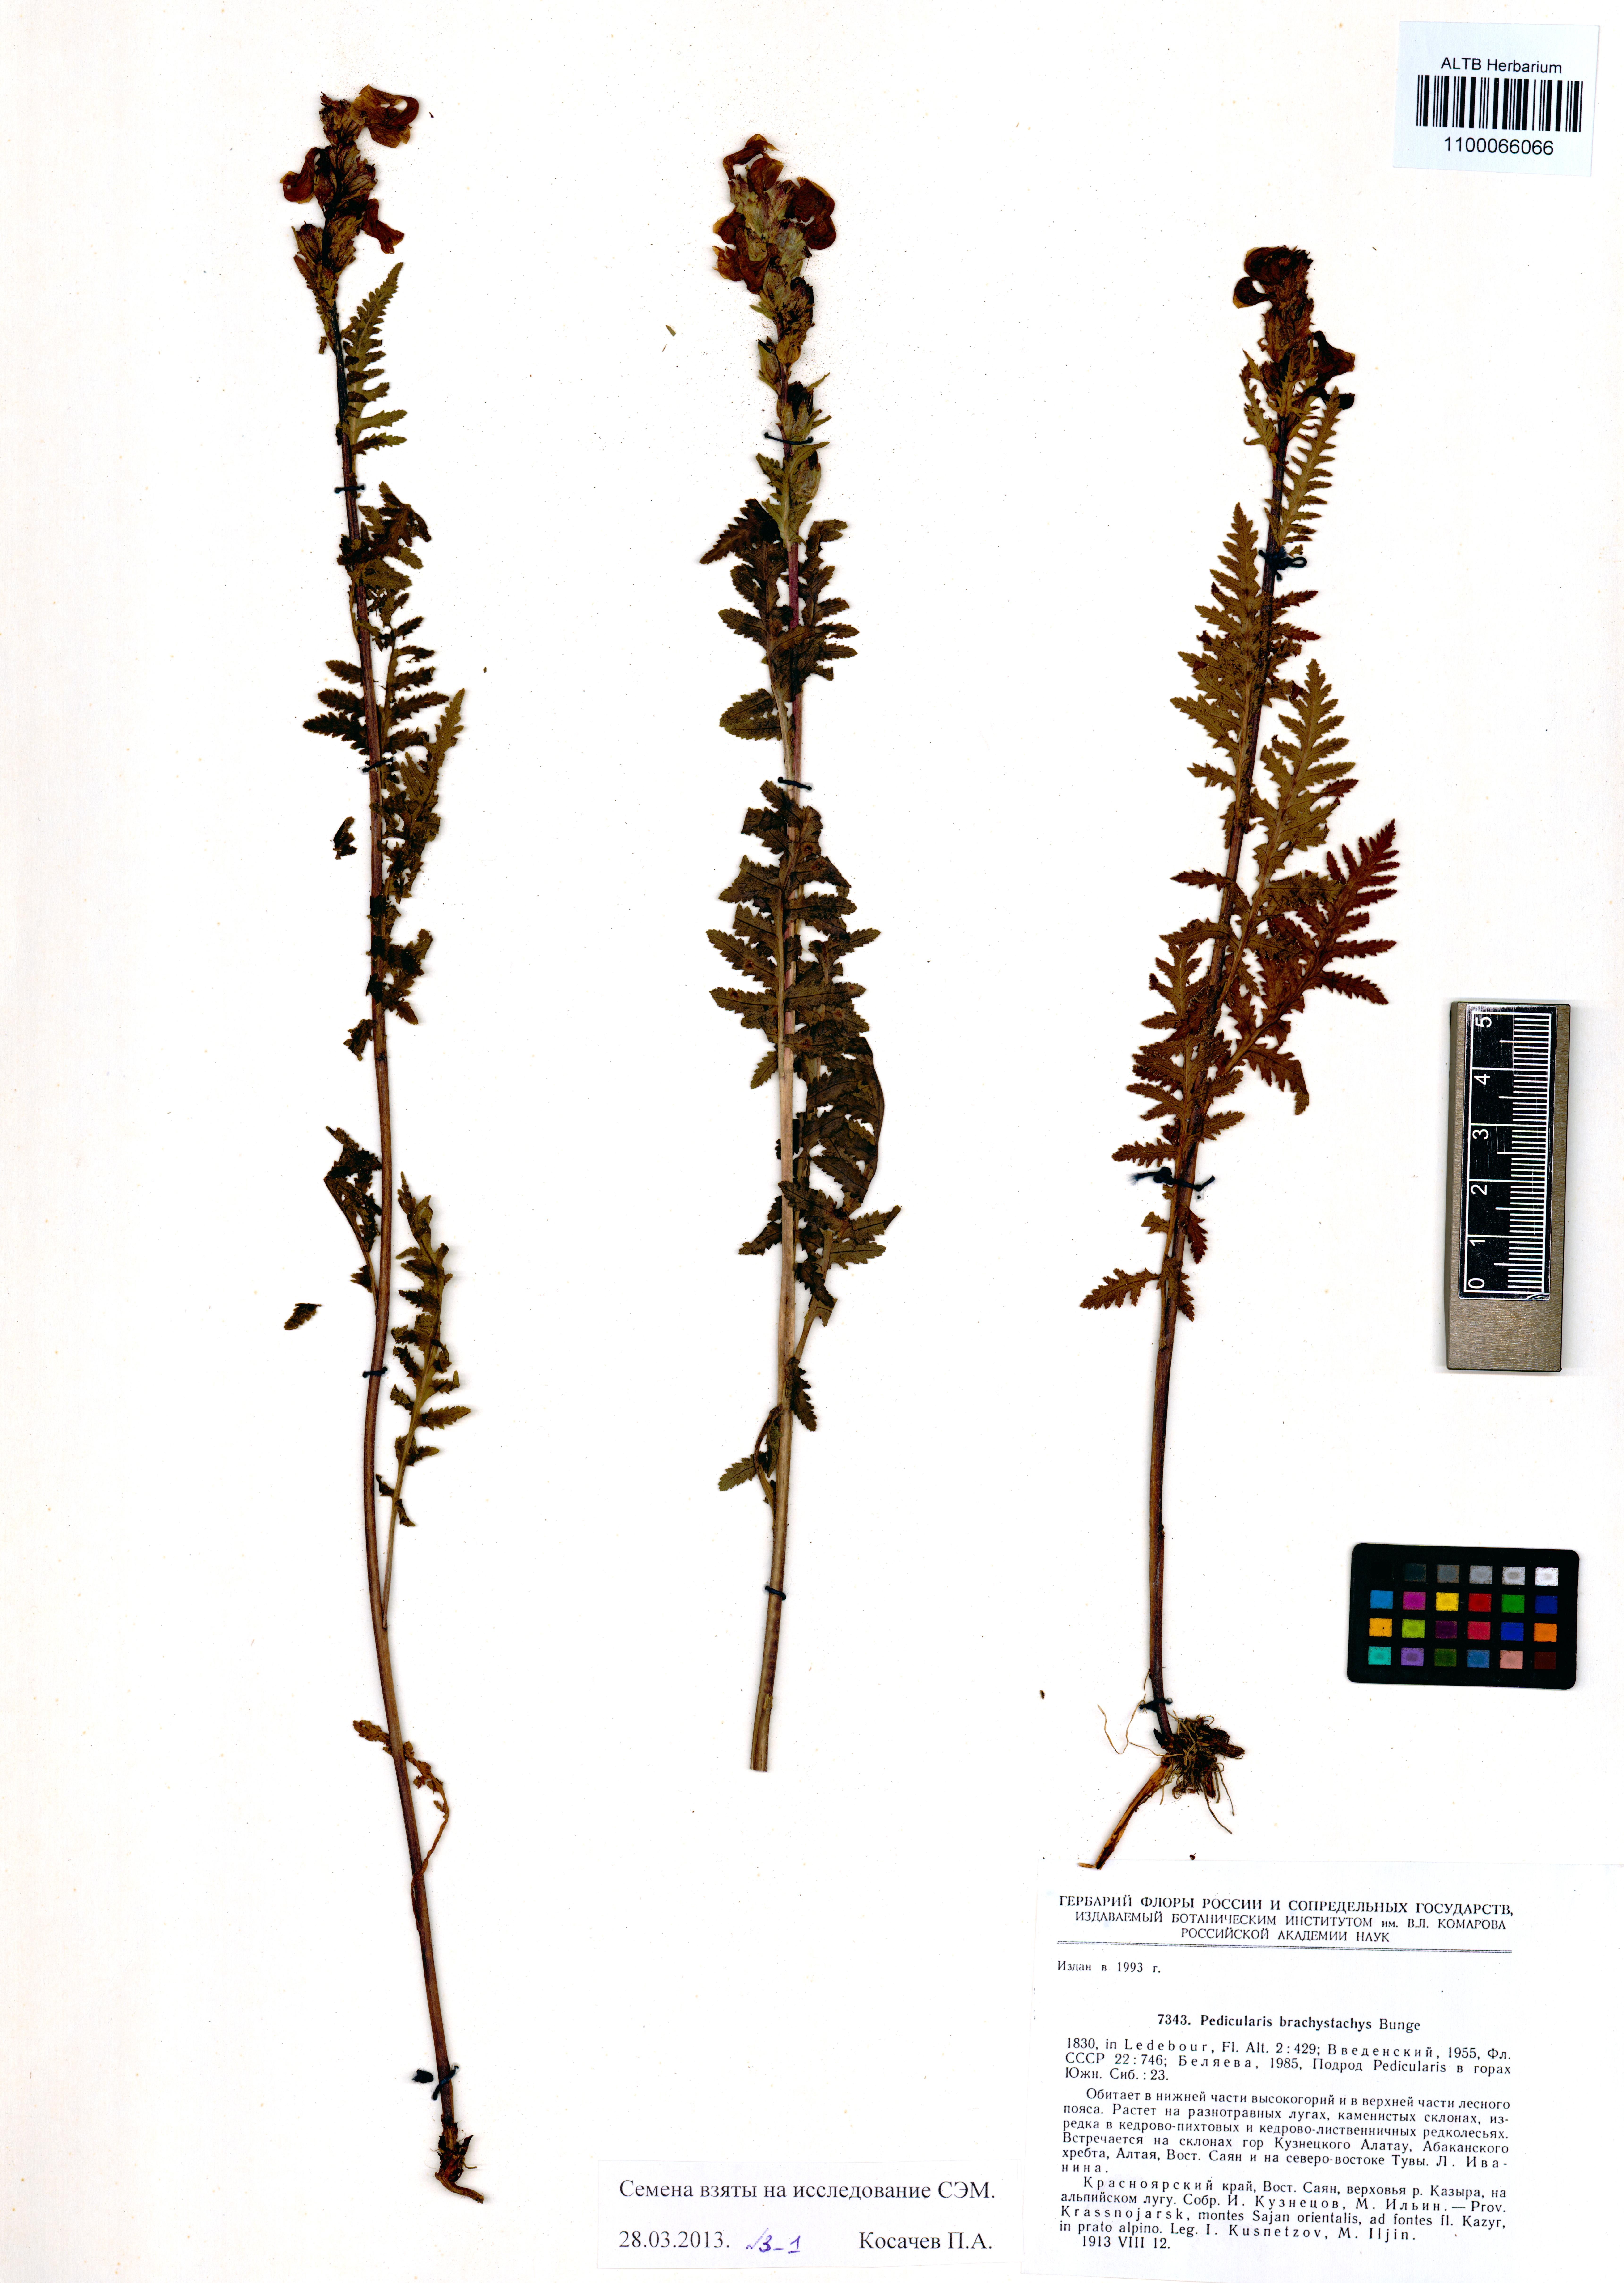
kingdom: Plantae
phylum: Tracheophyta
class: Magnoliopsida
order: Lamiales
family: Orobanchaceae
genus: Pedicularis
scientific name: Pedicularis brachystachys
